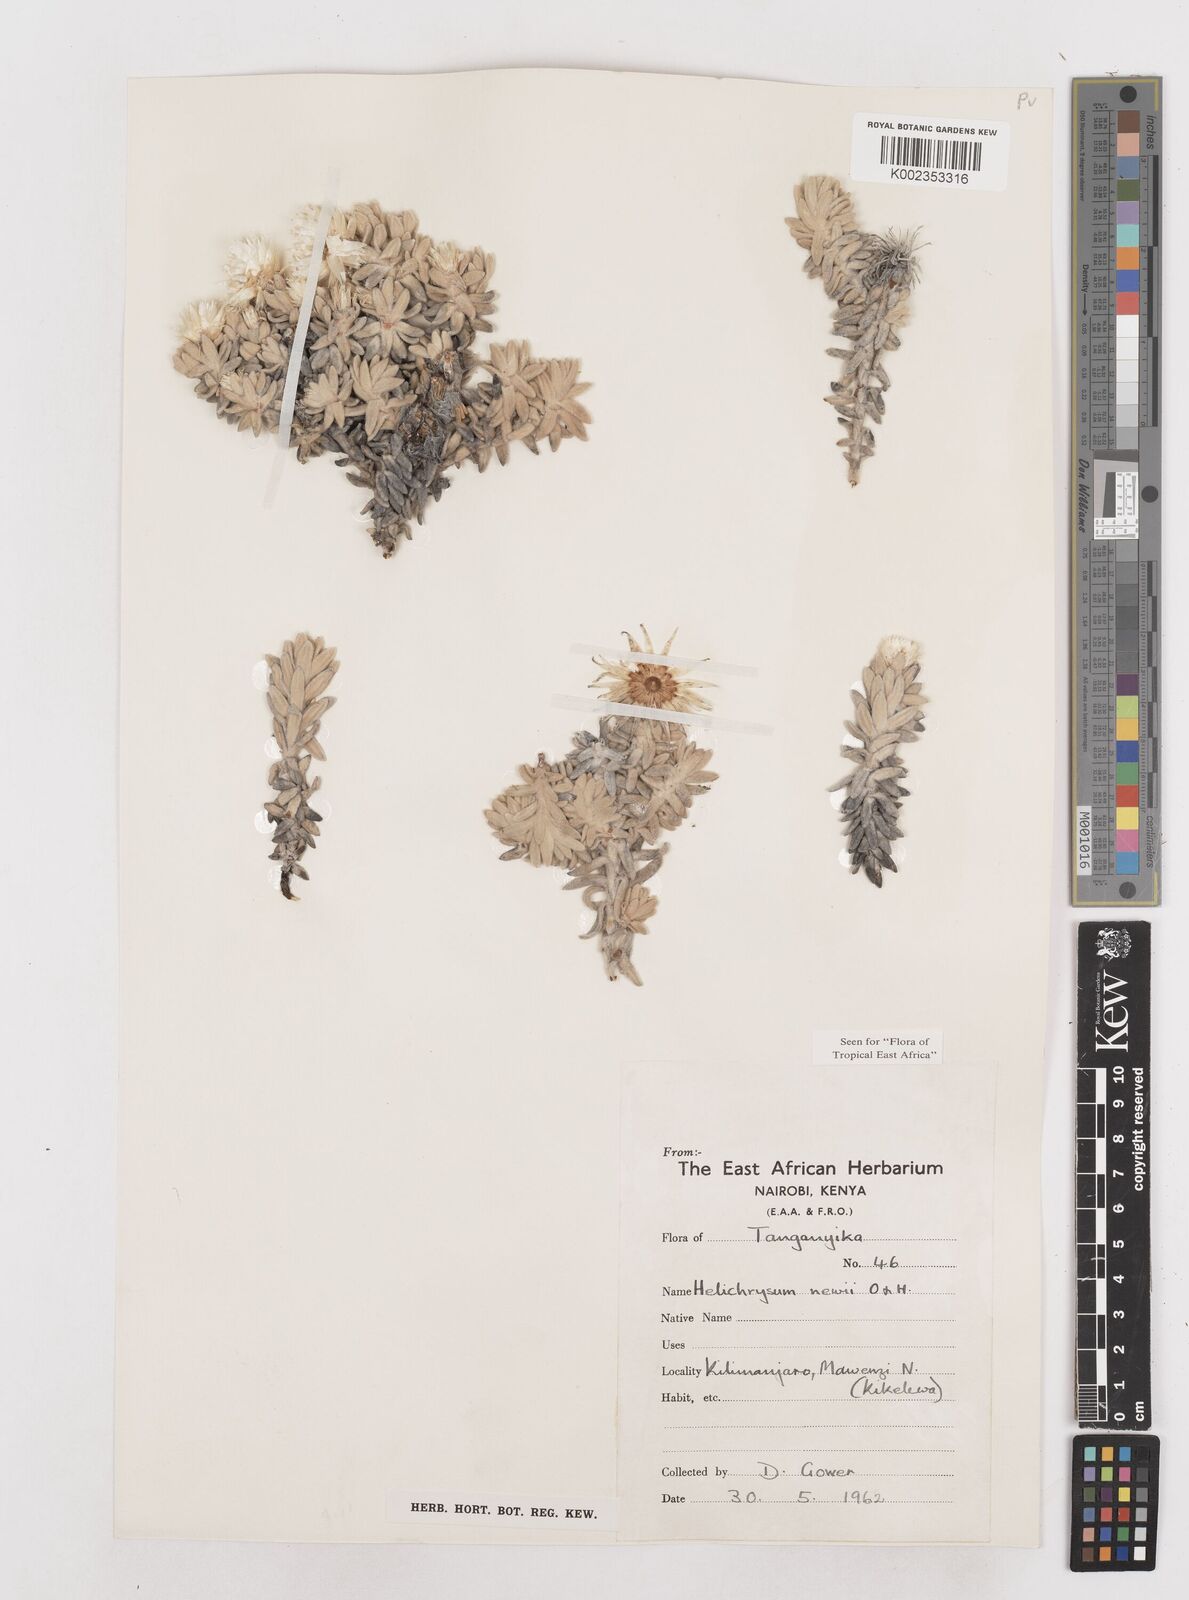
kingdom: Plantae
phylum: Tracheophyta
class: Magnoliopsida
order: Asterales
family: Asteraceae
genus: Helichrysum
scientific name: Helichrysum newii
